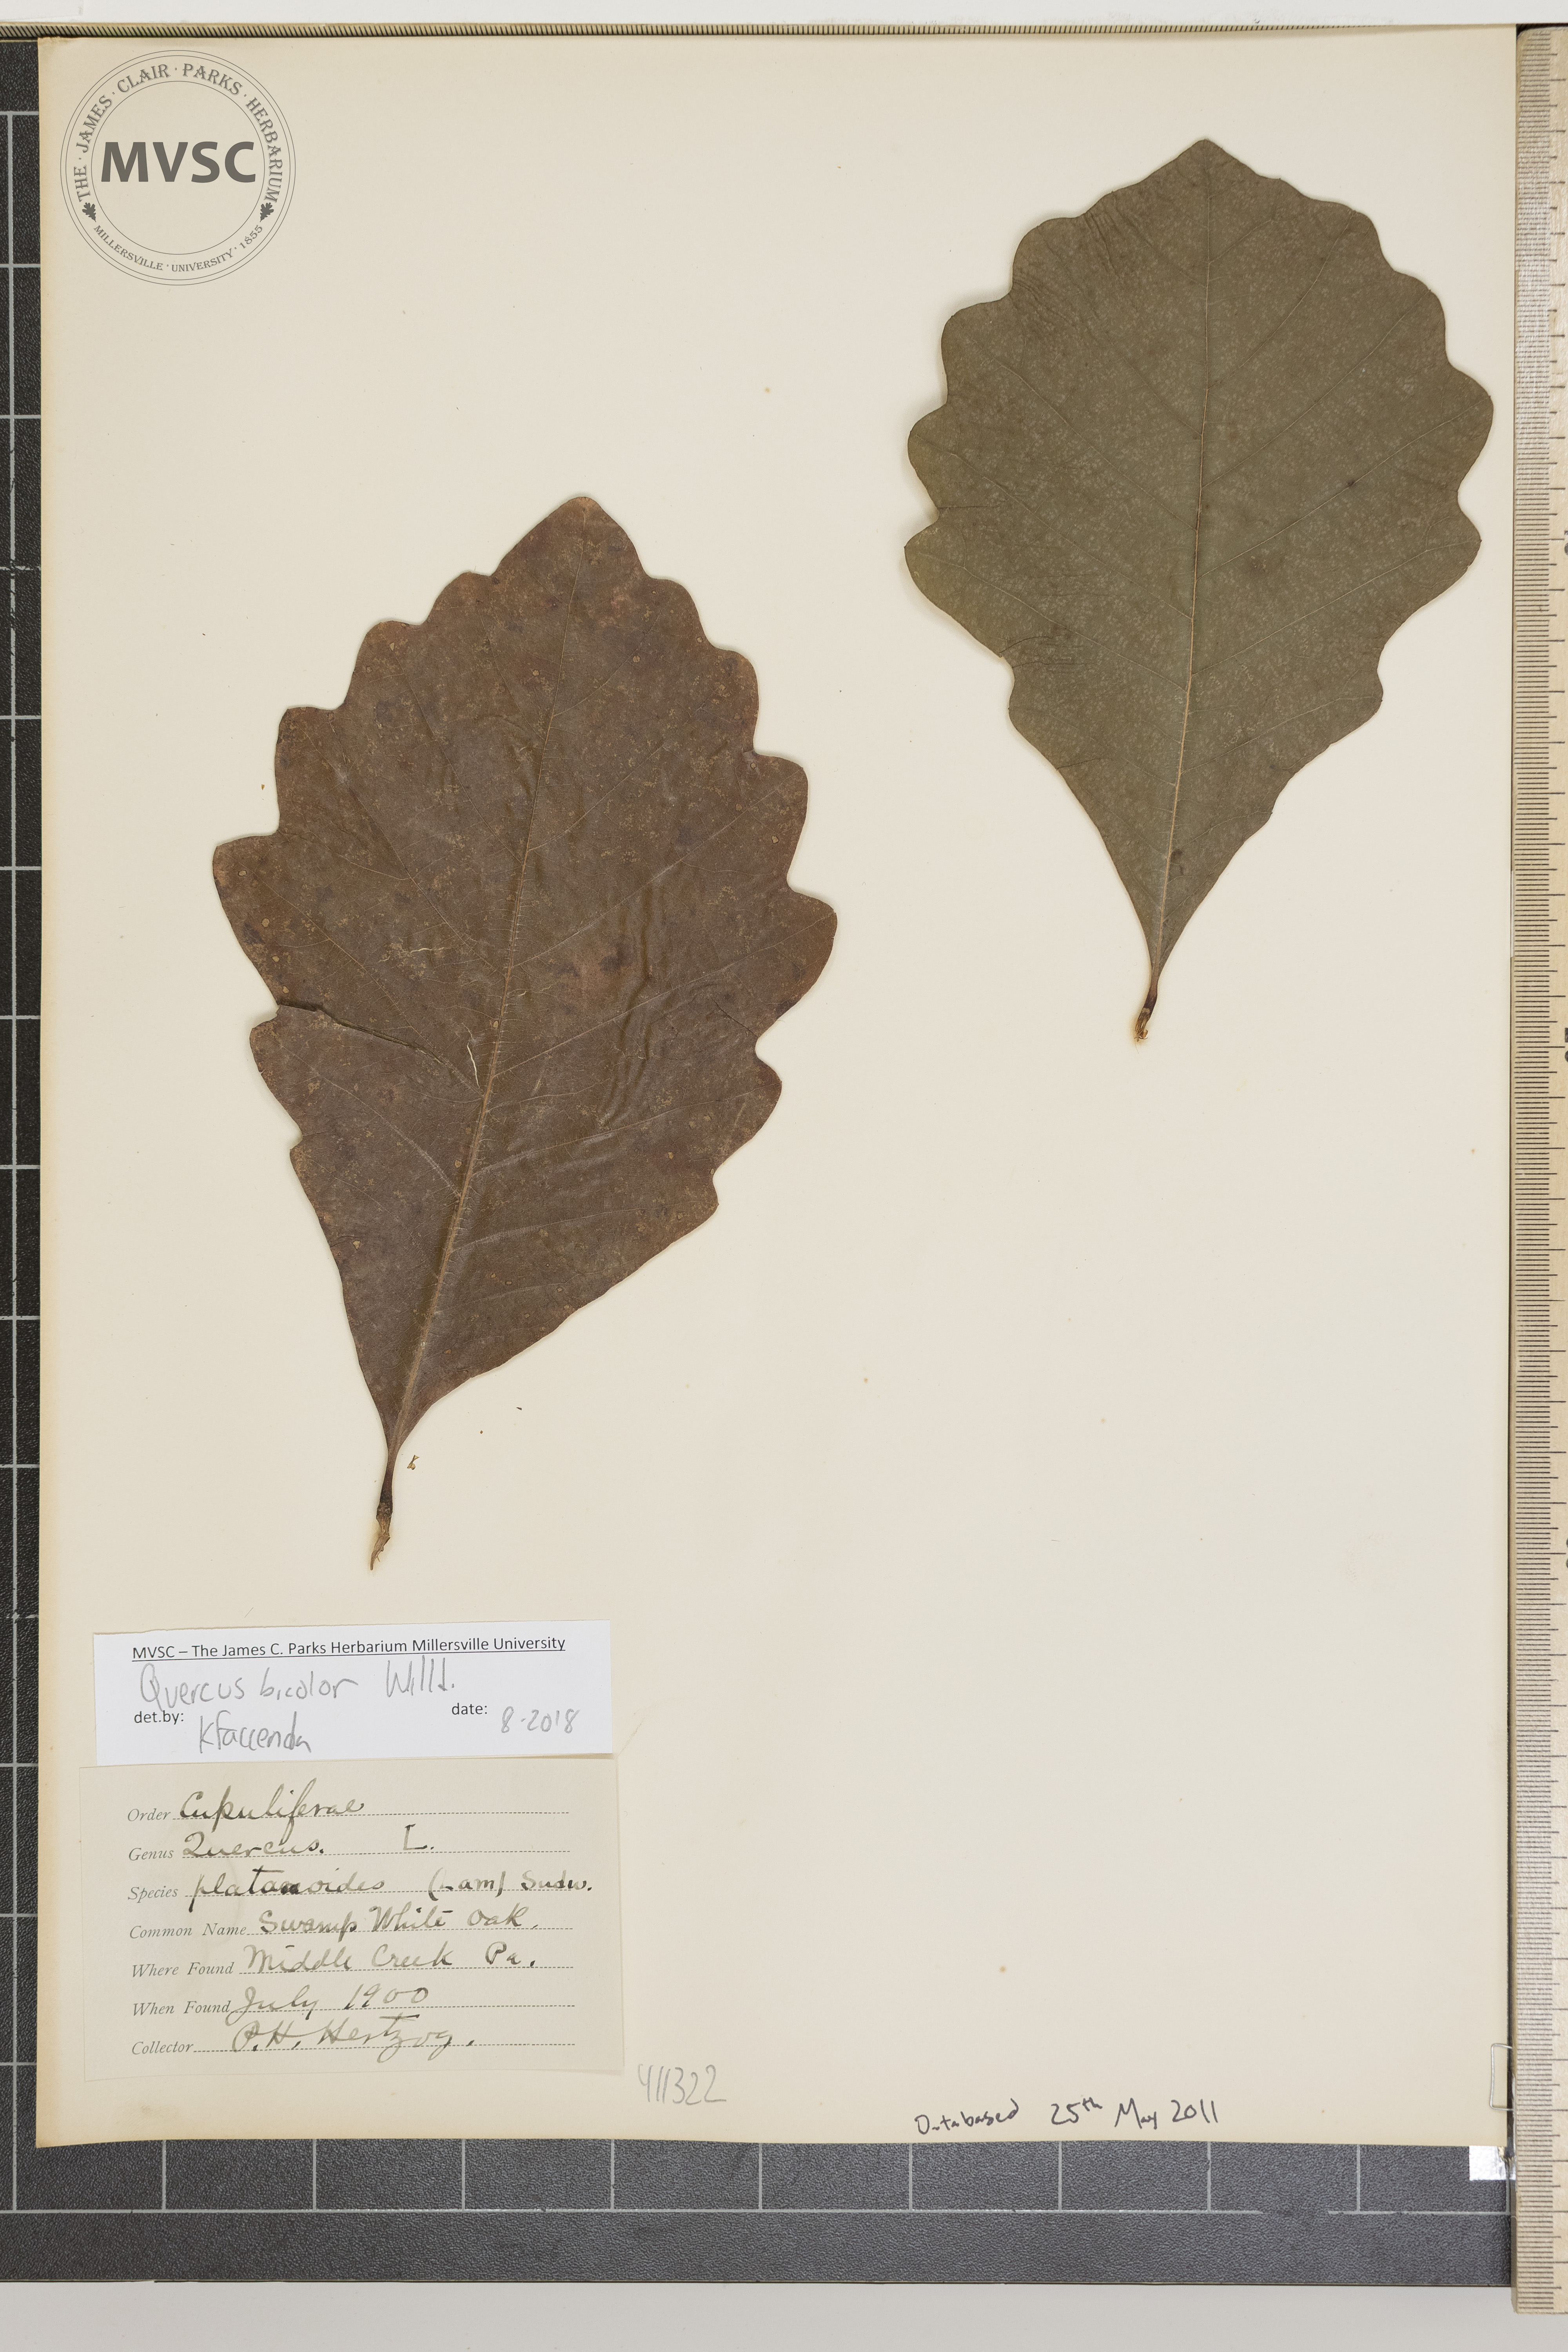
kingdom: Plantae
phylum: Tracheophyta
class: Magnoliopsida
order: Fagales
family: Fagaceae
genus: Quercus
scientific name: Quercus bicolor
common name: Swamp white oak
